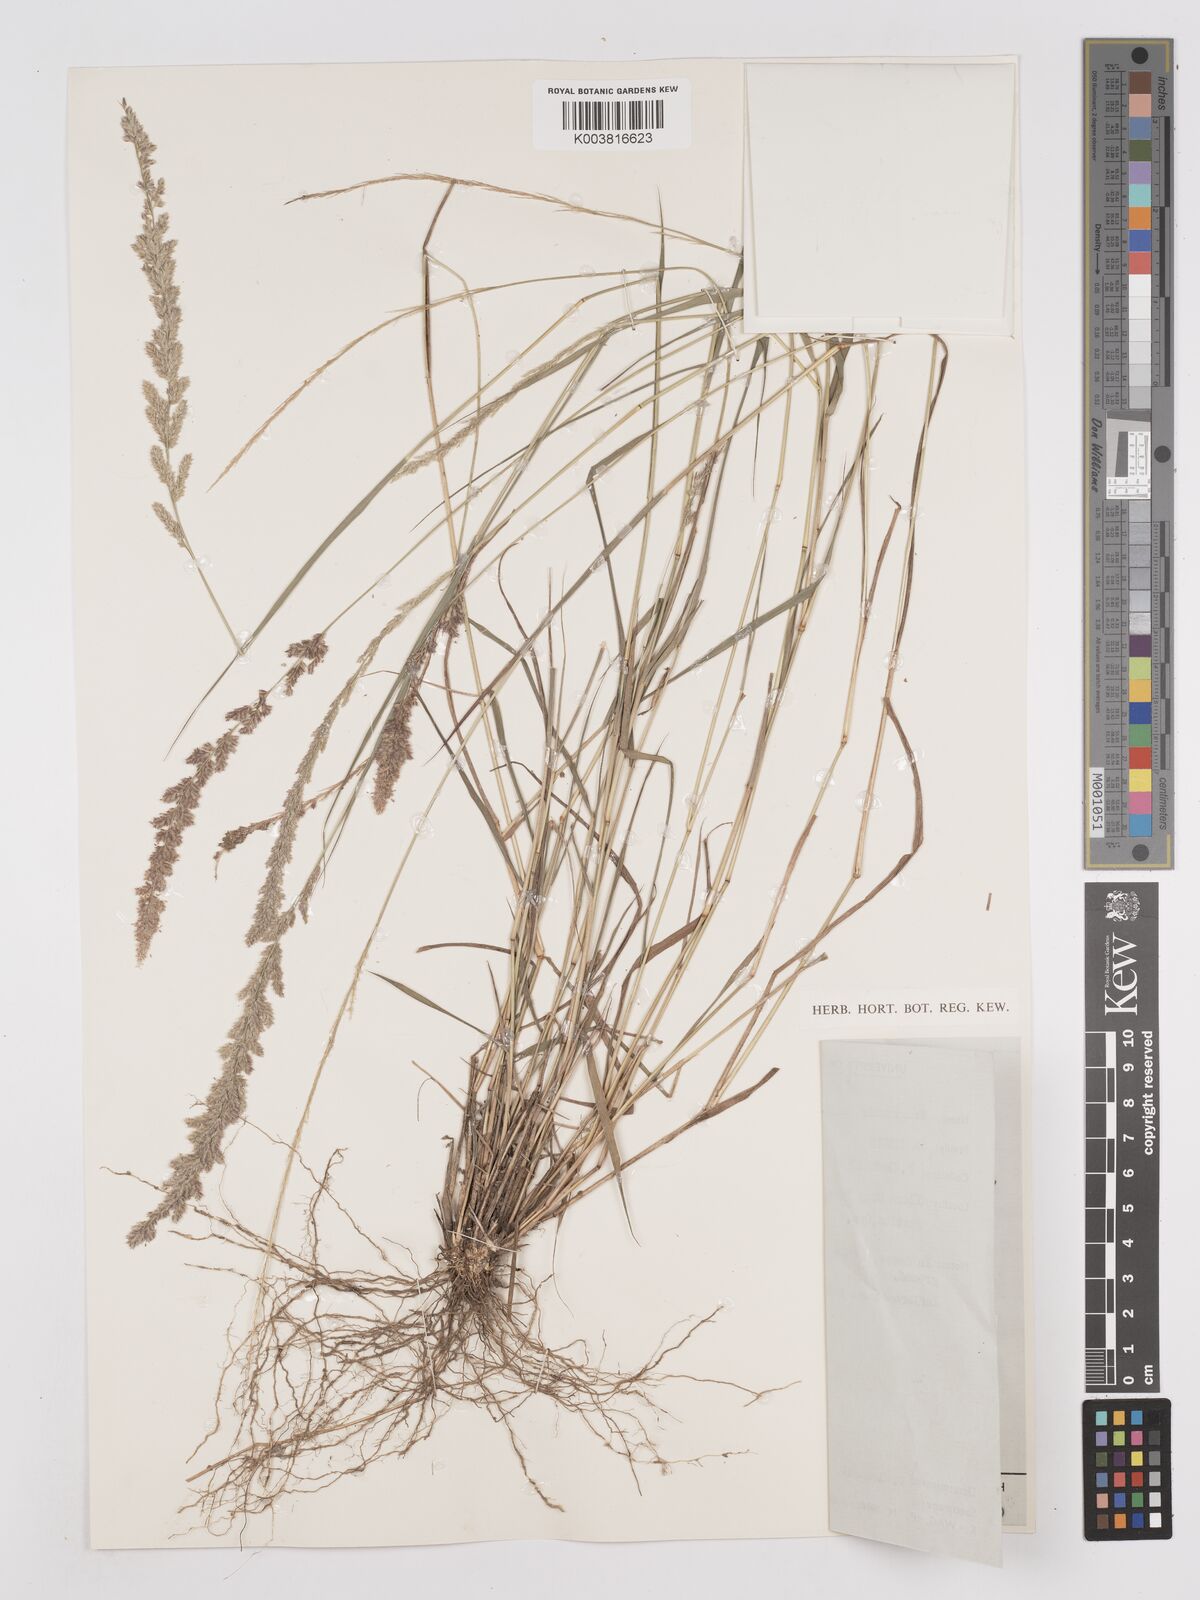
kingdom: Plantae
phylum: Tracheophyta
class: Liliopsida
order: Poales
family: Poaceae
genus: Eragrostis
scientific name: Eragrostis ciliaris
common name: Gophertail lovegrass
